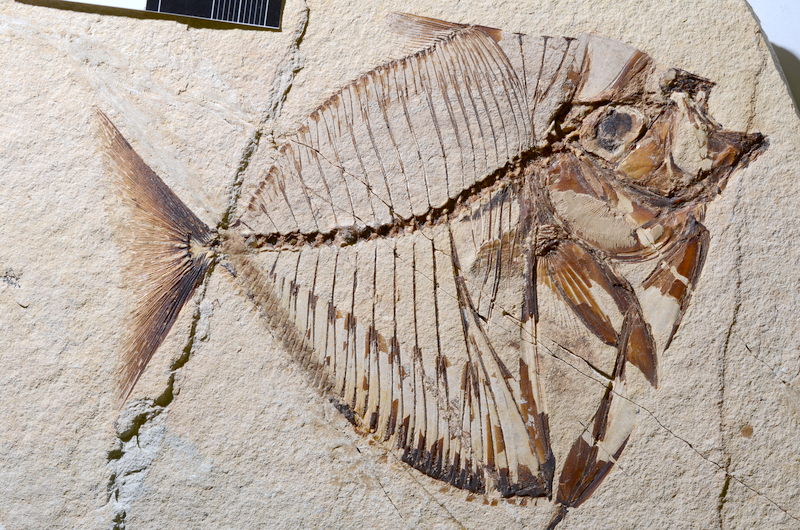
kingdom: Animalia
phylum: Chordata
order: Perciformes
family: Menidae
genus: Mene
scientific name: Mene rhombea
